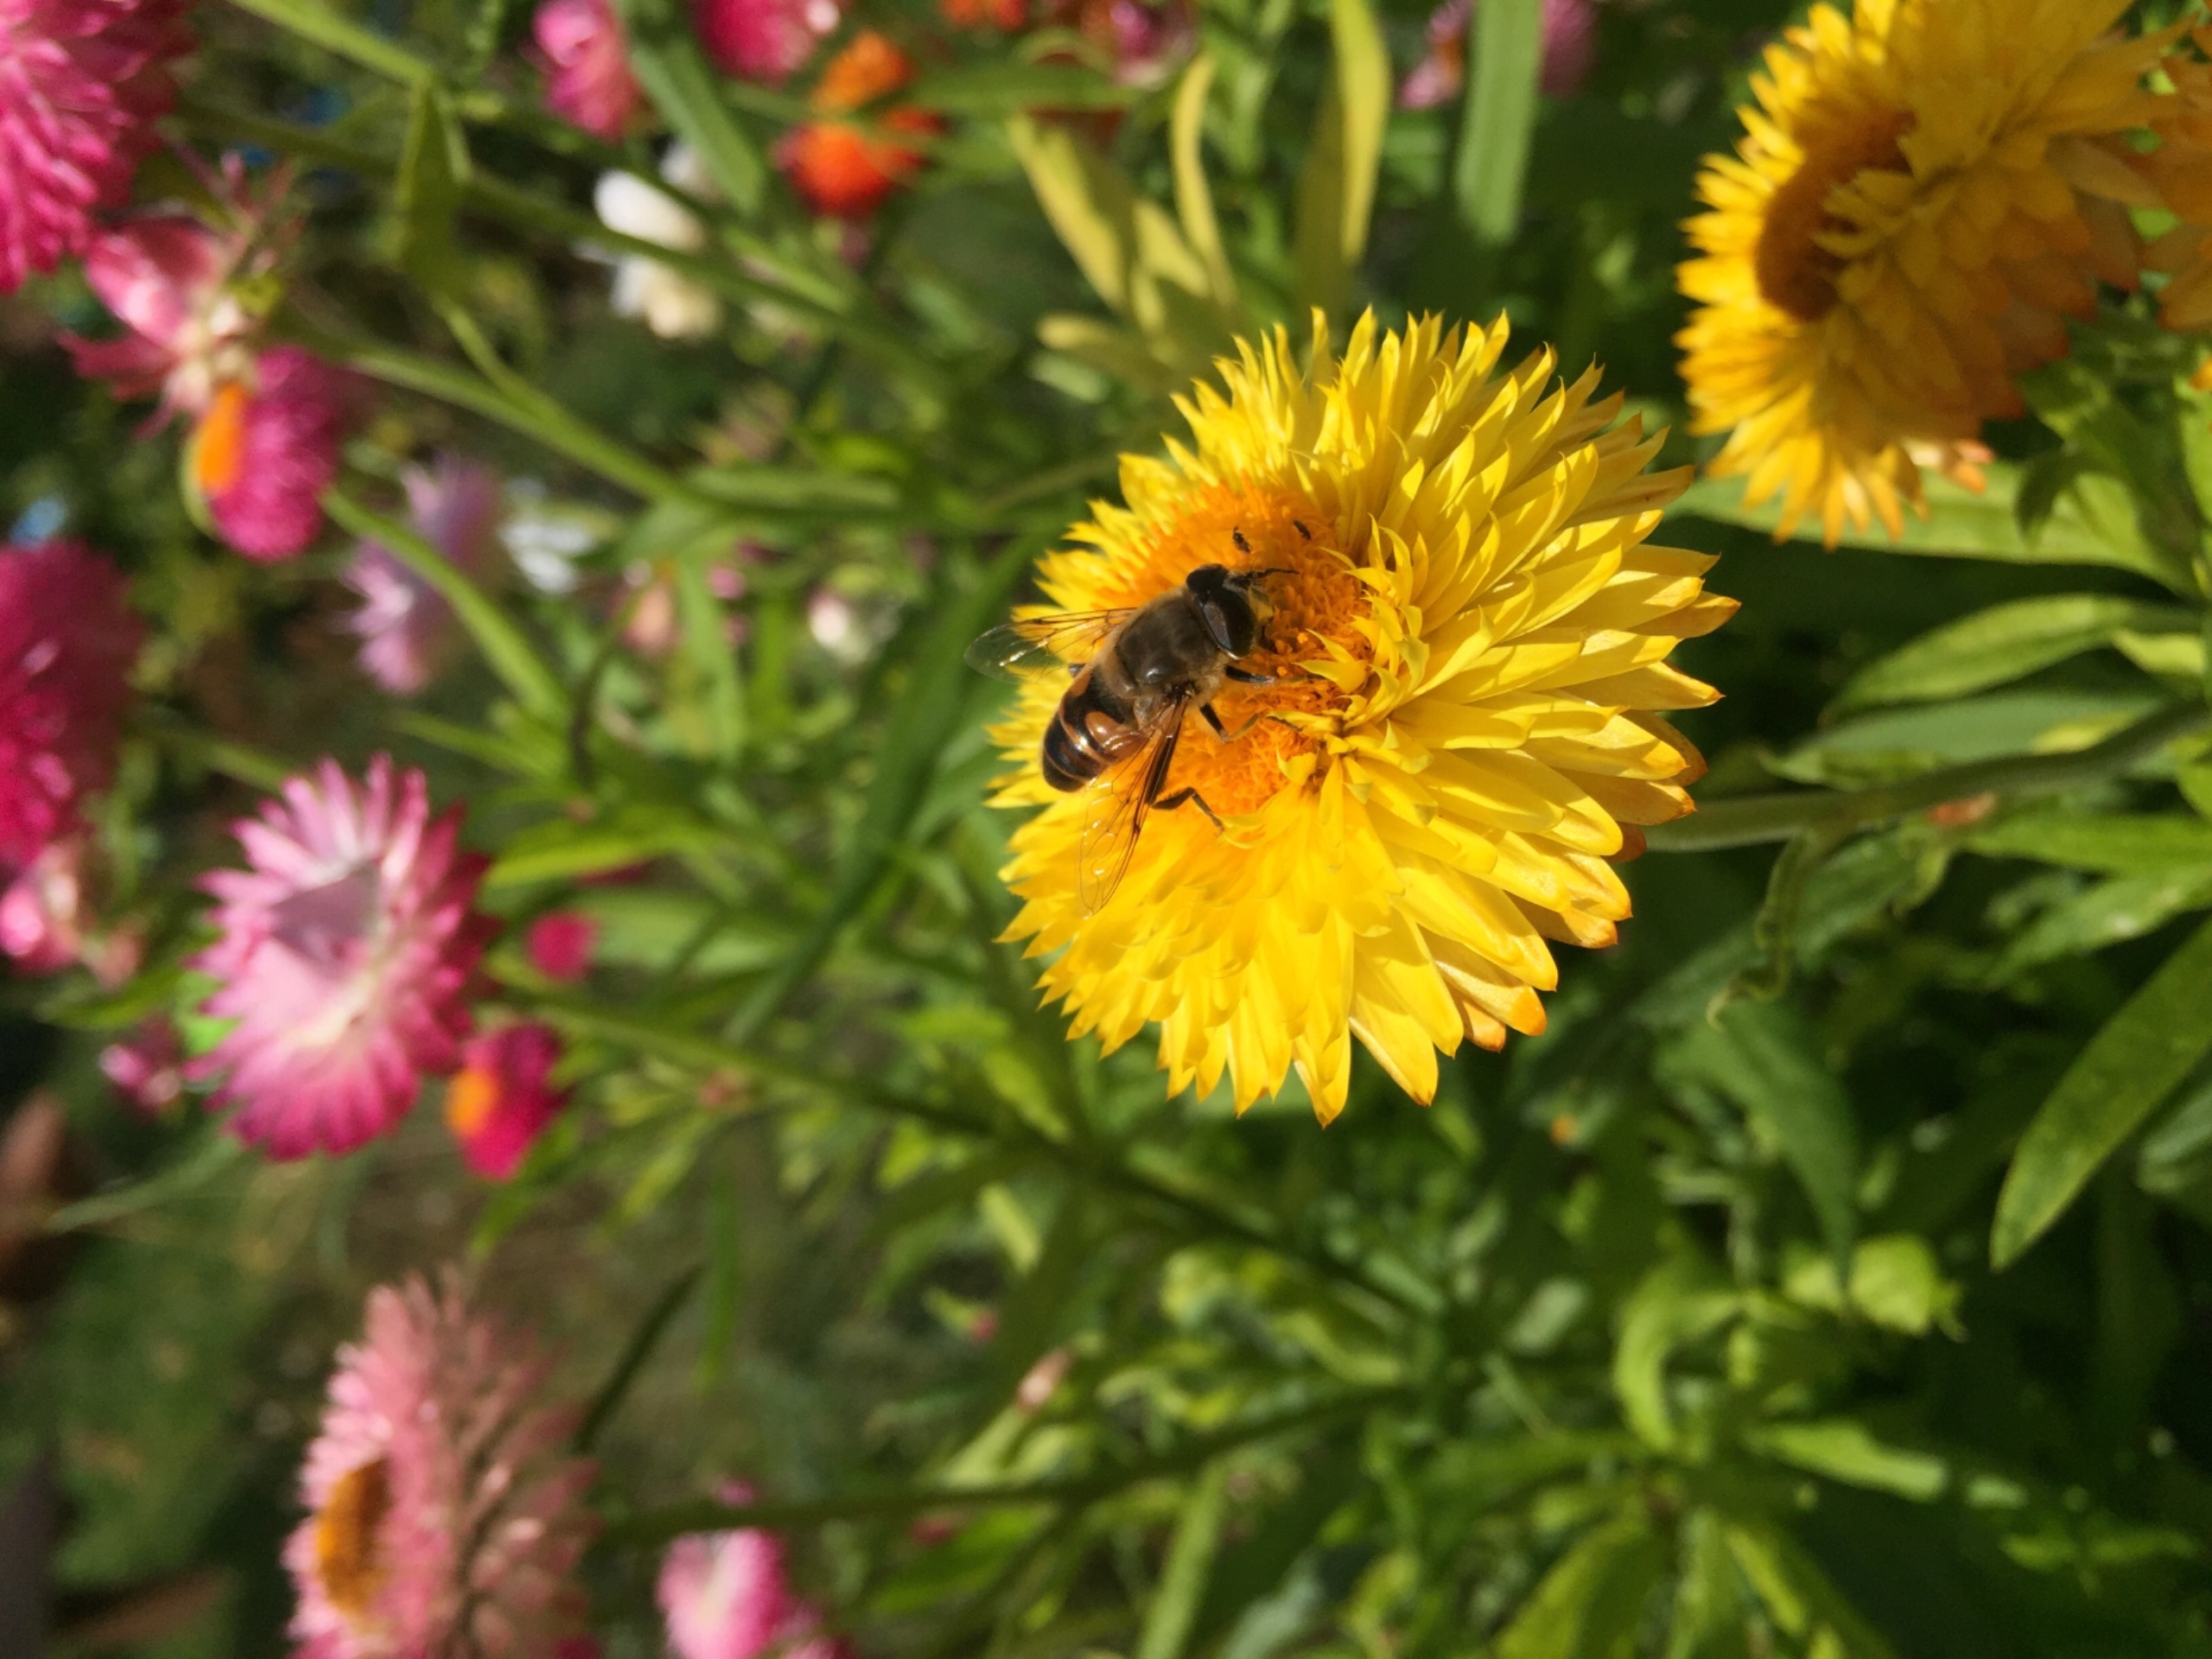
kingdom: Animalia
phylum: Arthropoda
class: Insecta
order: Diptera
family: Syrphidae
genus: Eristalis
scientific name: Eristalis tenax
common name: Droneflue
